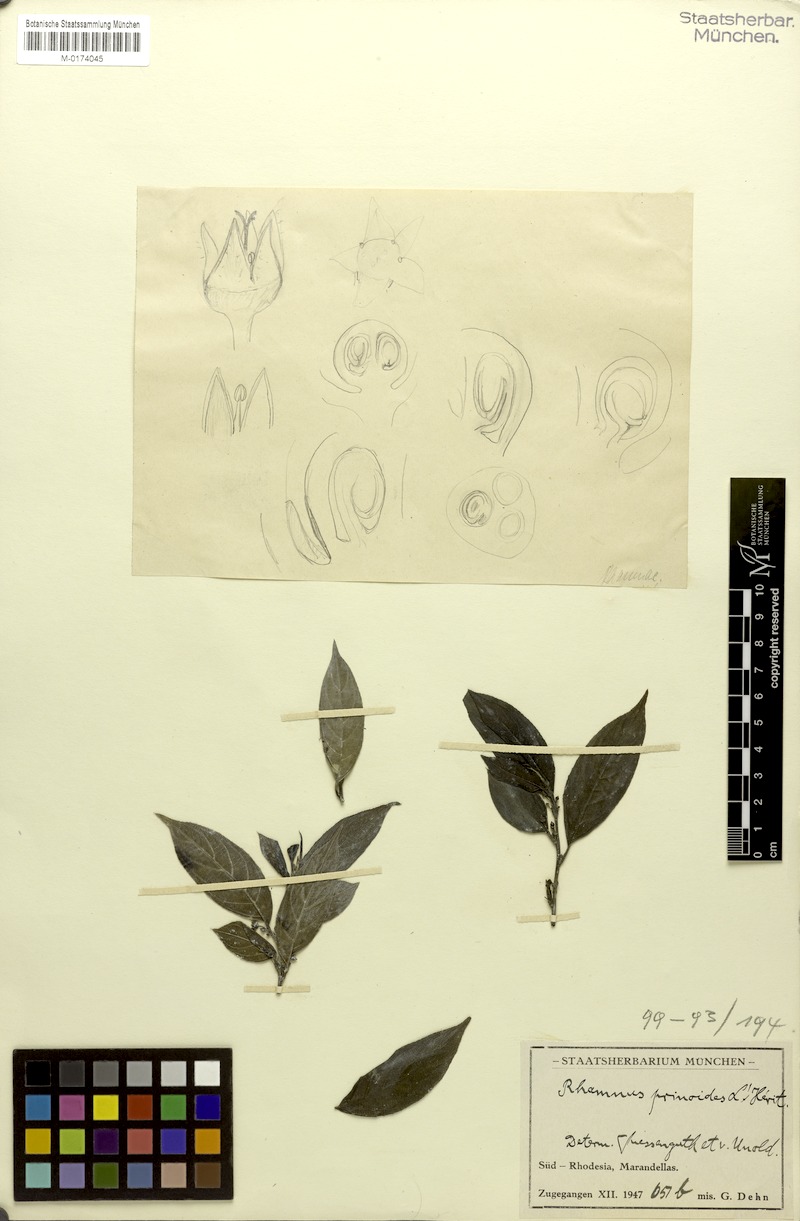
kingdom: Plantae
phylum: Tracheophyta
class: Magnoliopsida
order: Rosales
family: Rhamnaceae
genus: Rhamnus
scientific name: Rhamnus prinoides
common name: Dogwood
